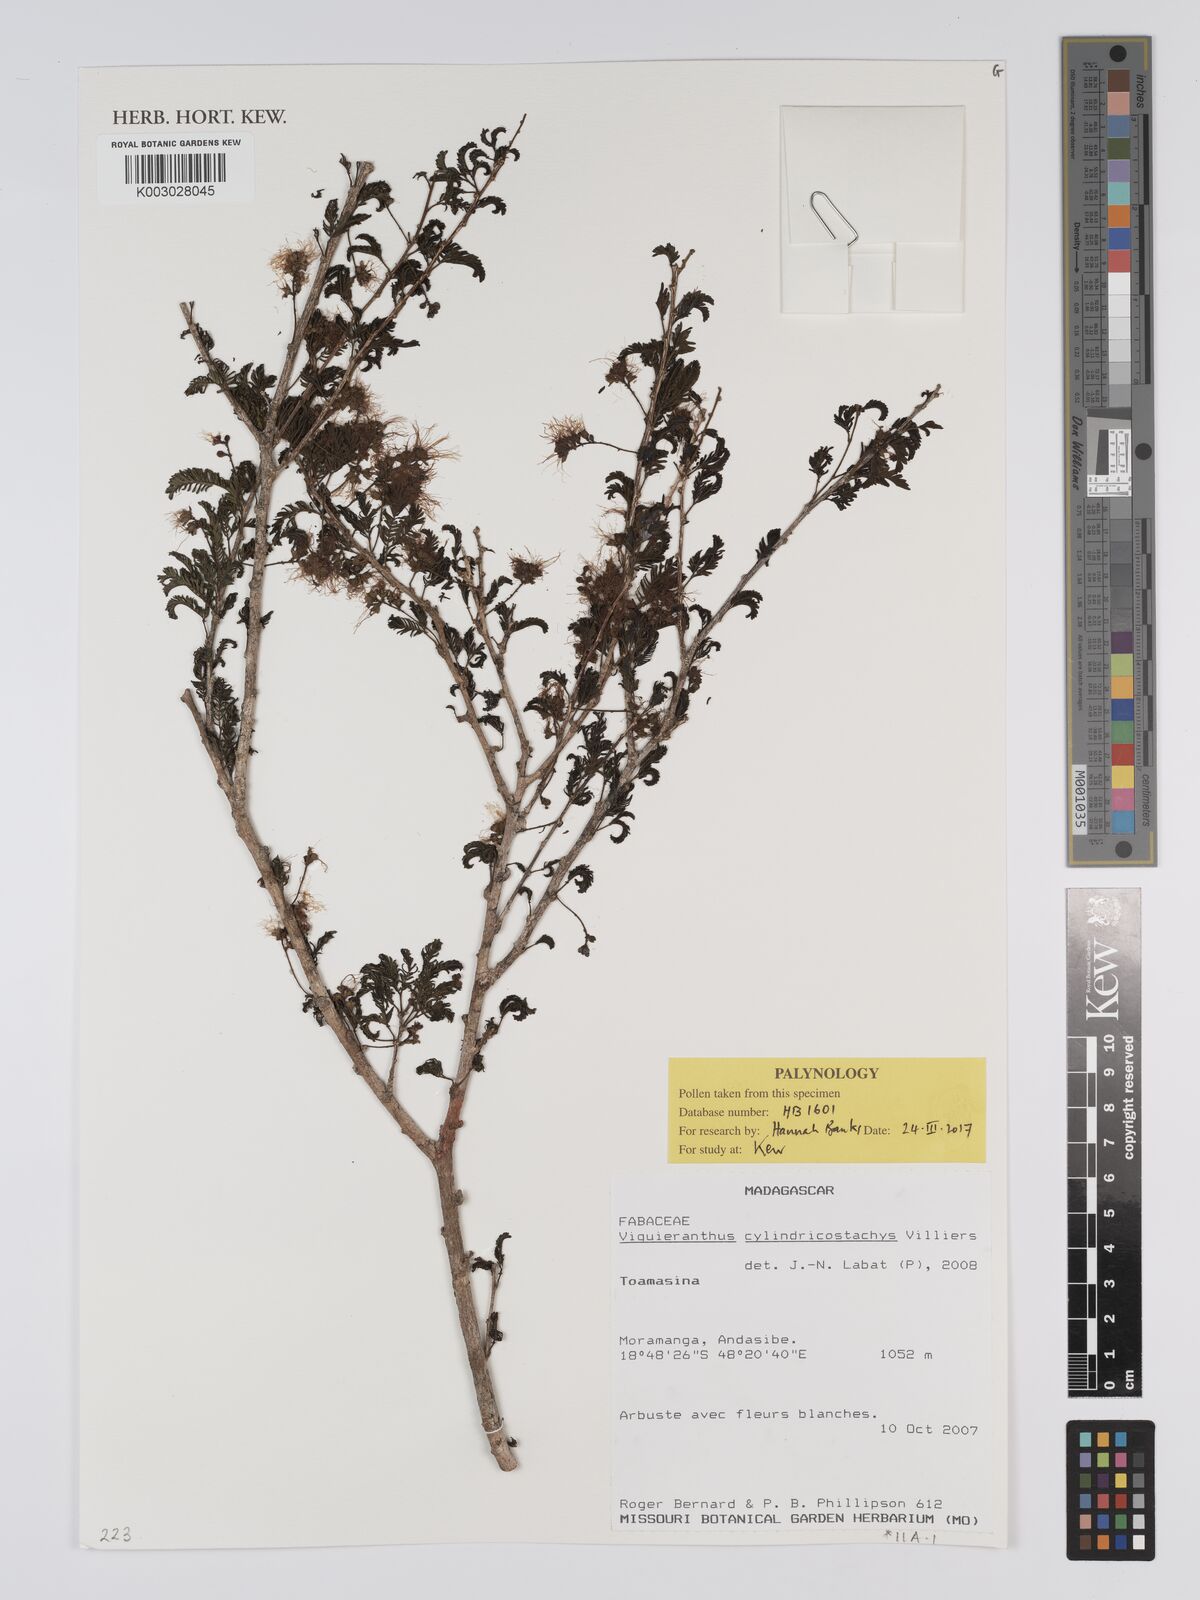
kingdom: Plantae
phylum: Tracheophyta
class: Magnoliopsida
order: Fabales
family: Fabaceae
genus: Viguieranthus
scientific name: Viguieranthus cylindricostachys
